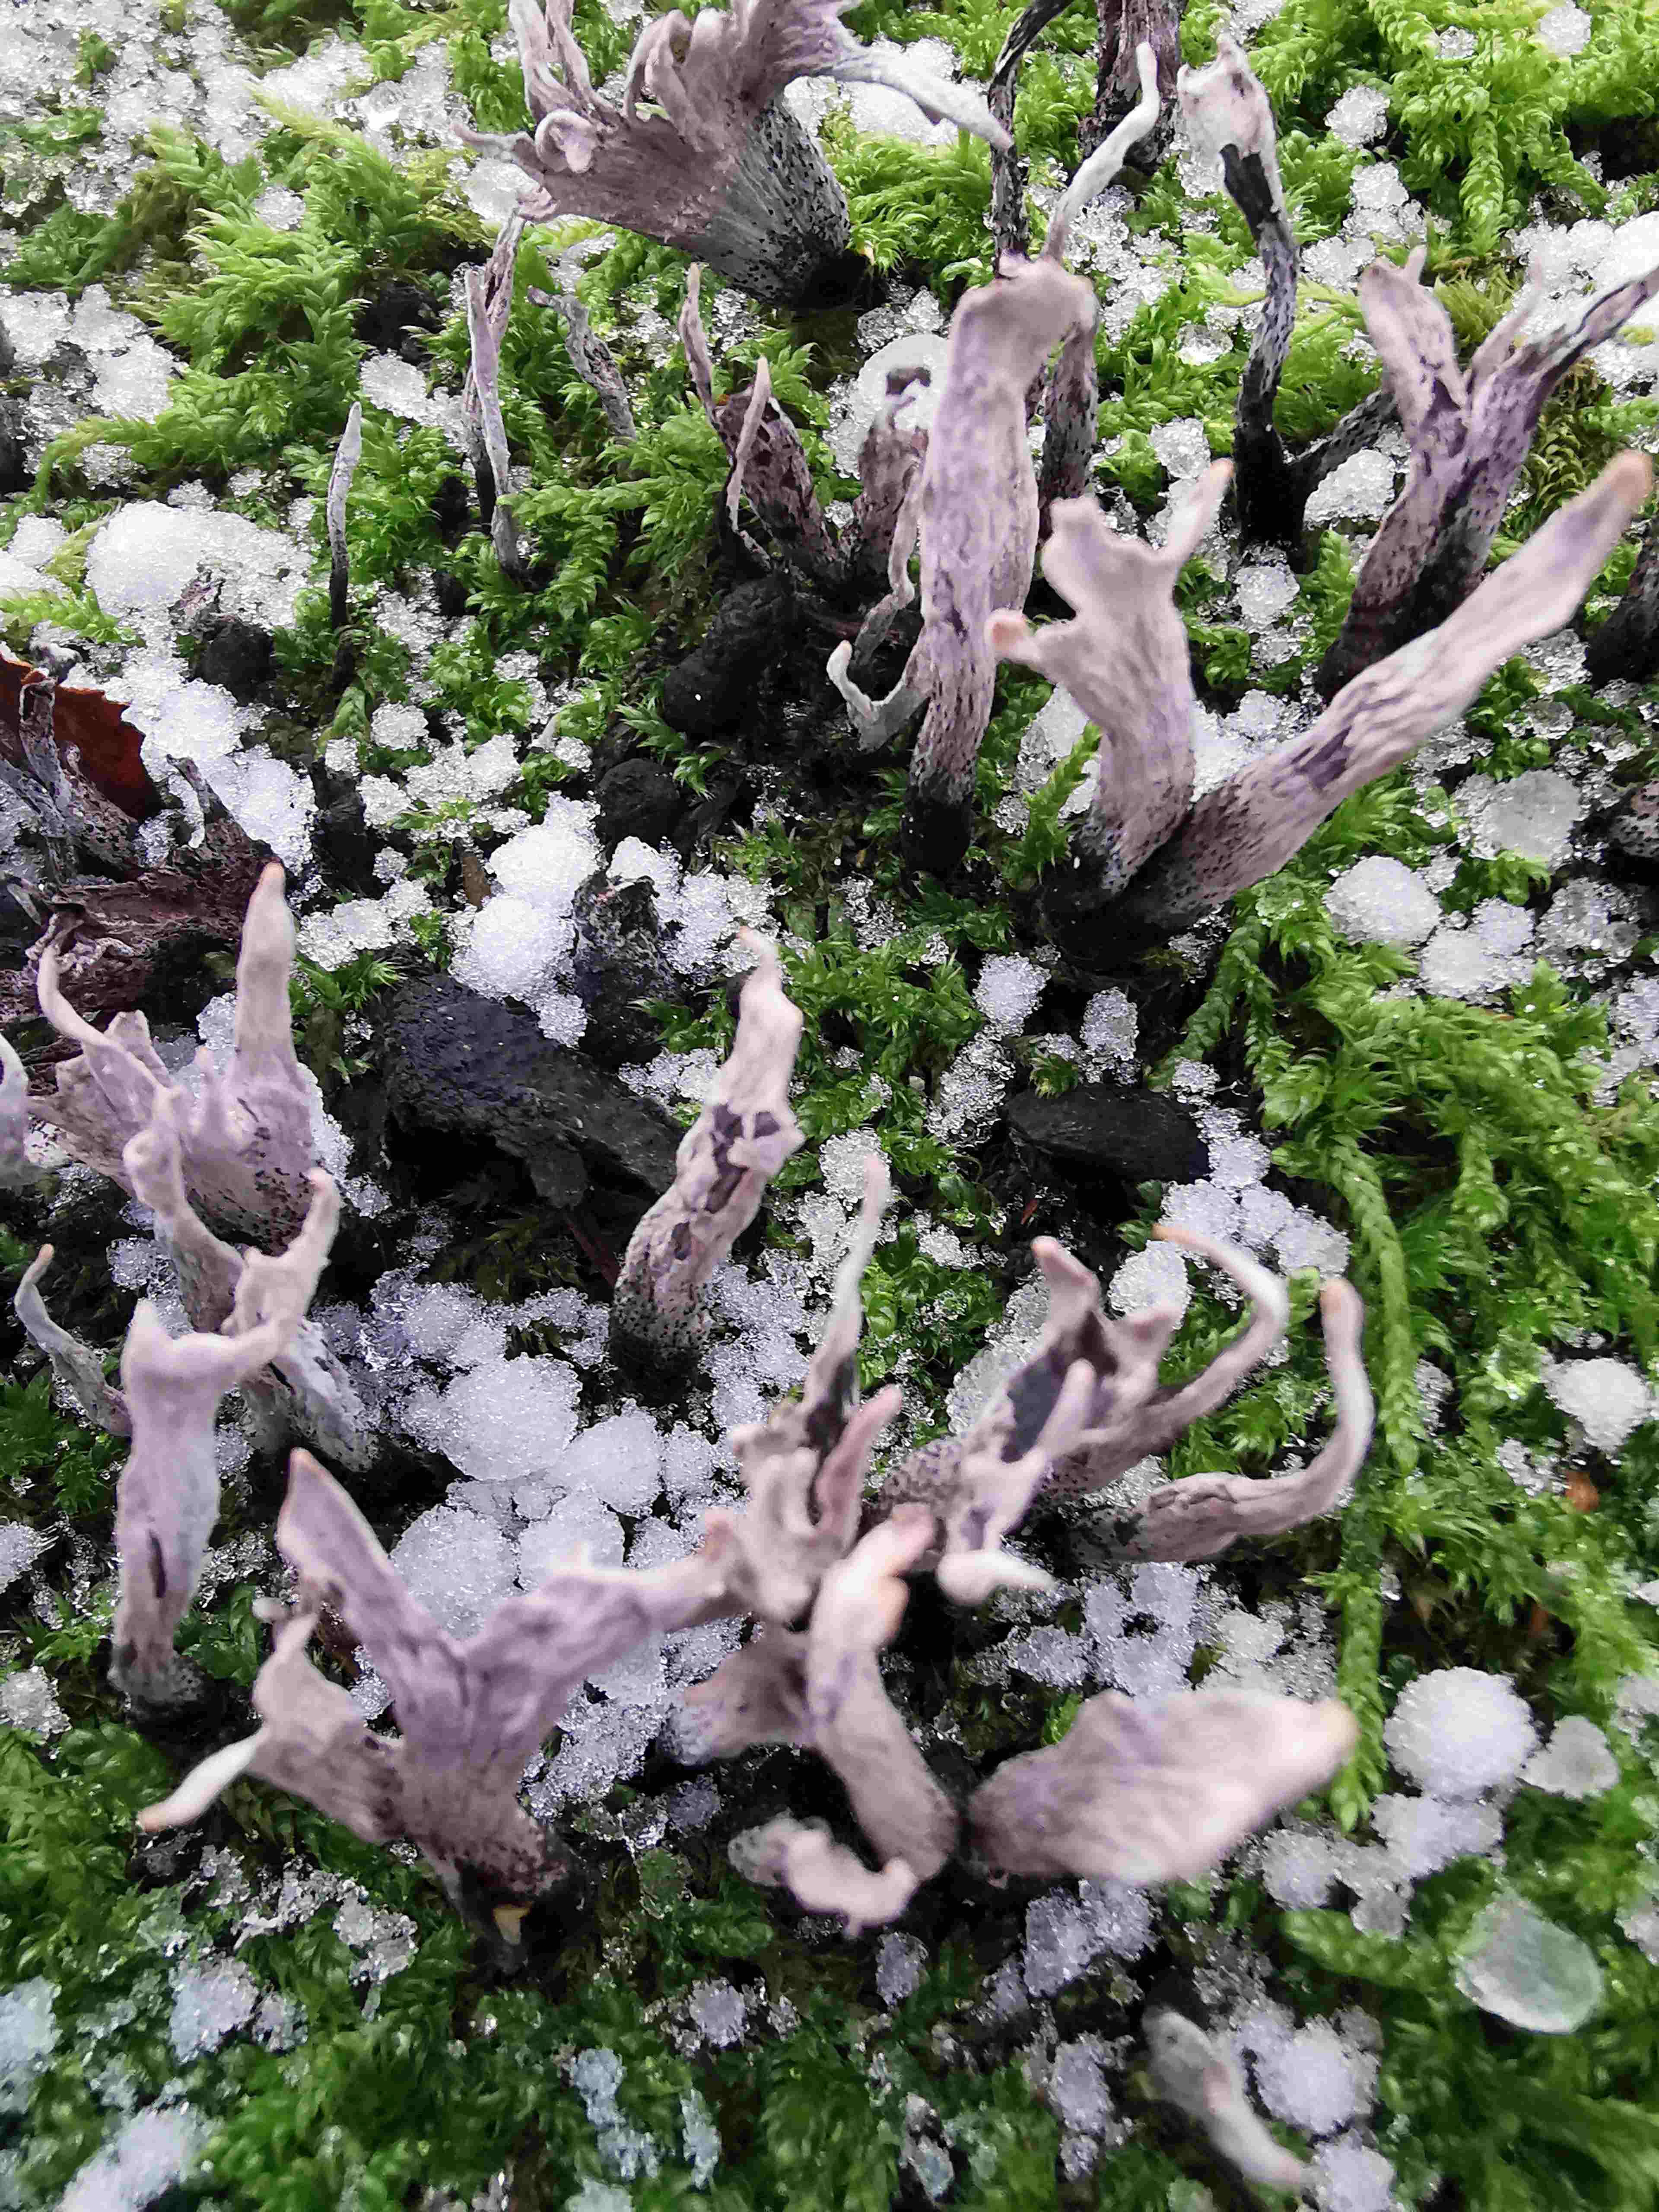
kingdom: Fungi
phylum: Ascomycota
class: Sordariomycetes
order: Xylariales
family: Xylariaceae
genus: Xylaria
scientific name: Xylaria hypoxylon
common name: grenet stødsvamp
